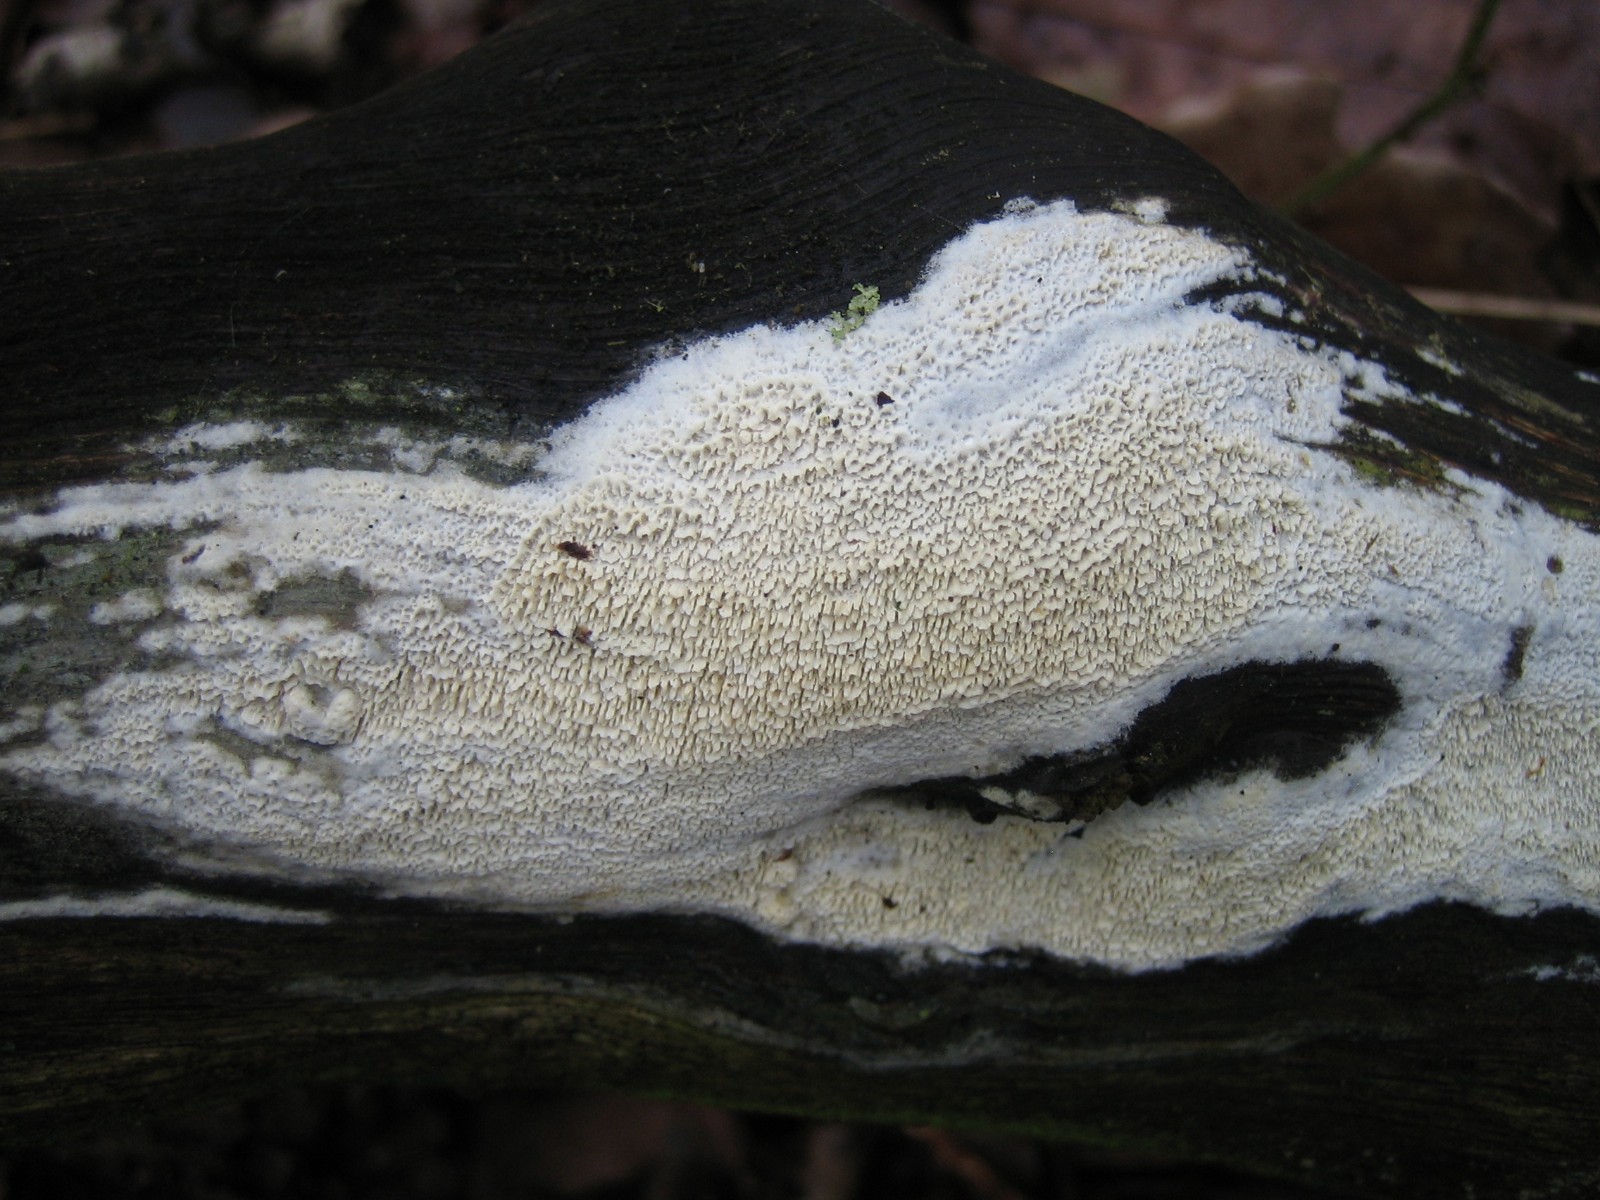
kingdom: Fungi
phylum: Basidiomycota
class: Agaricomycetes
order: Hymenochaetales
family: Schizoporaceae
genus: Schizopora
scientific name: Schizopora paradoxa
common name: hvid tandsvamp
